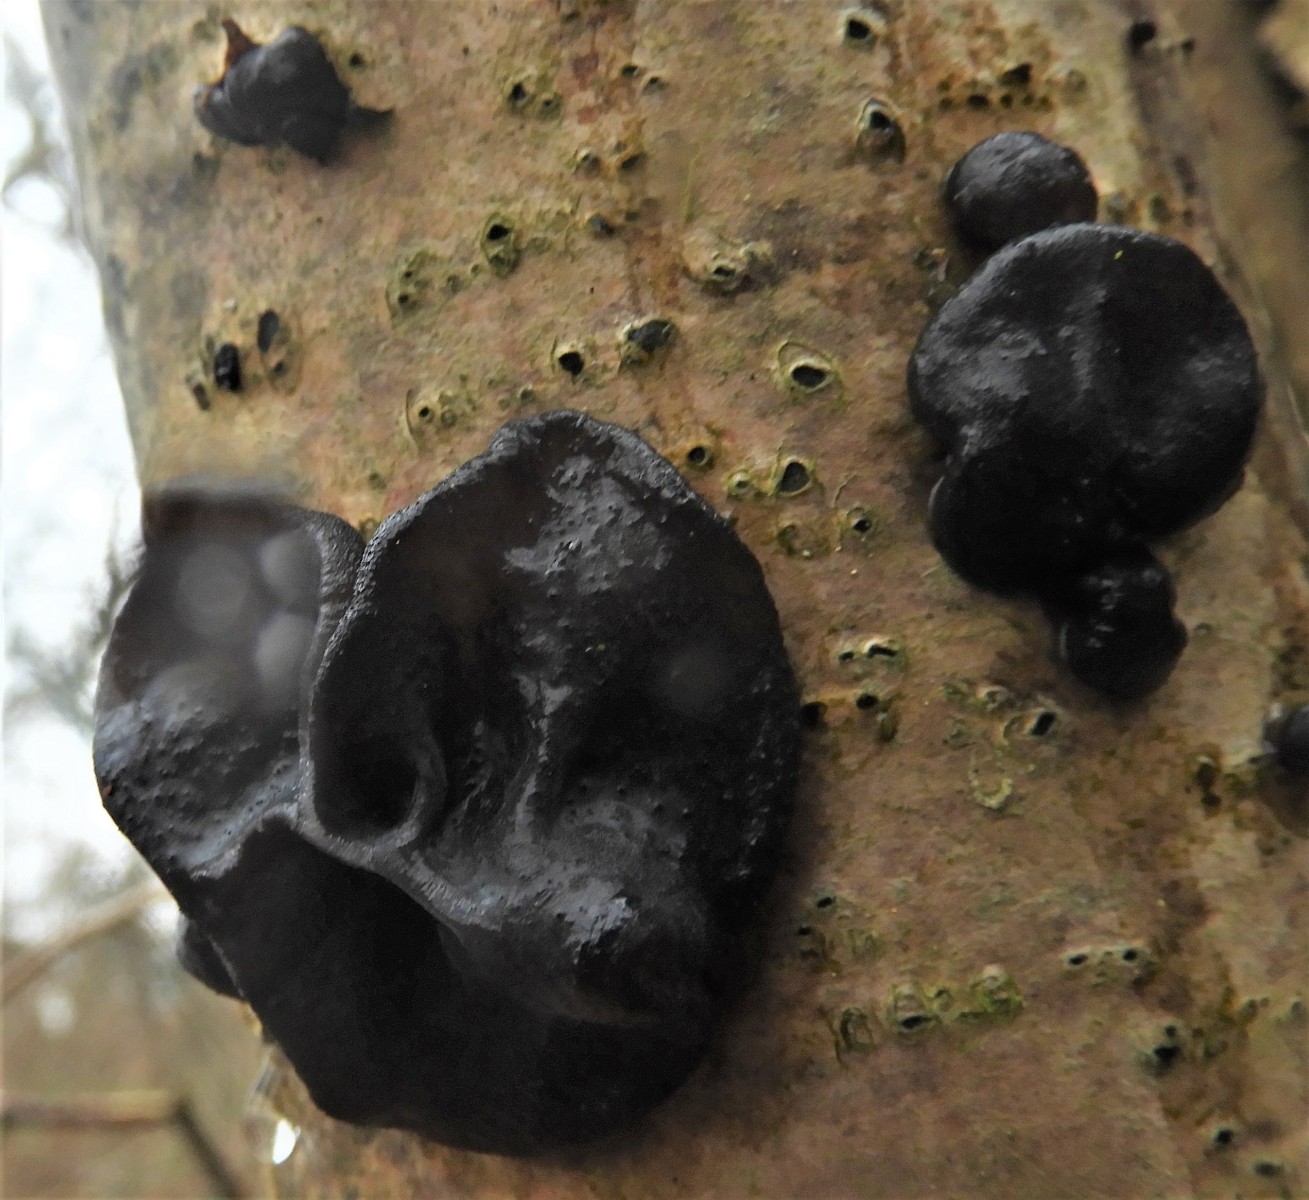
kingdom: Fungi
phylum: Basidiomycota
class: Agaricomycetes
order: Auriculariales
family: Auriculariaceae
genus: Exidia
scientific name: Exidia glandulosa
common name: ege-bævretop
